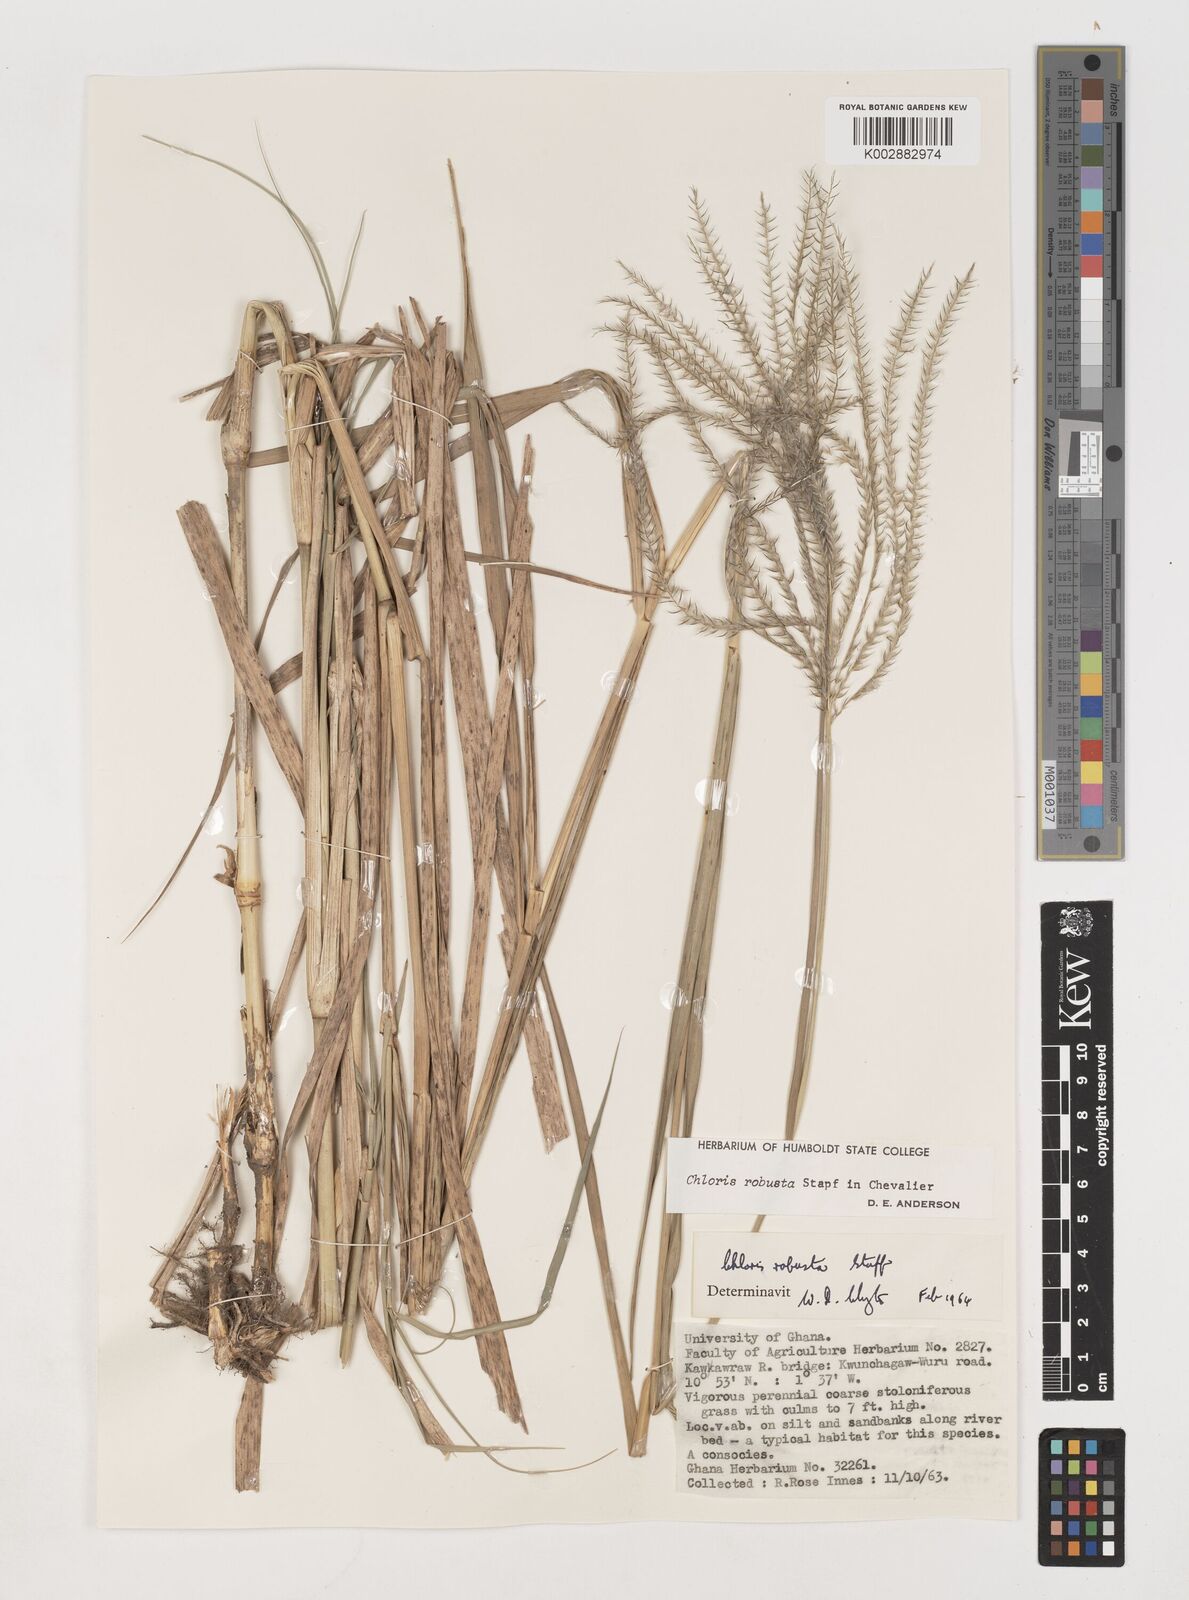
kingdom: Plantae
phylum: Tracheophyta
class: Liliopsida
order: Poales
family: Poaceae
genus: Chloris
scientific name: Chloris robusta
